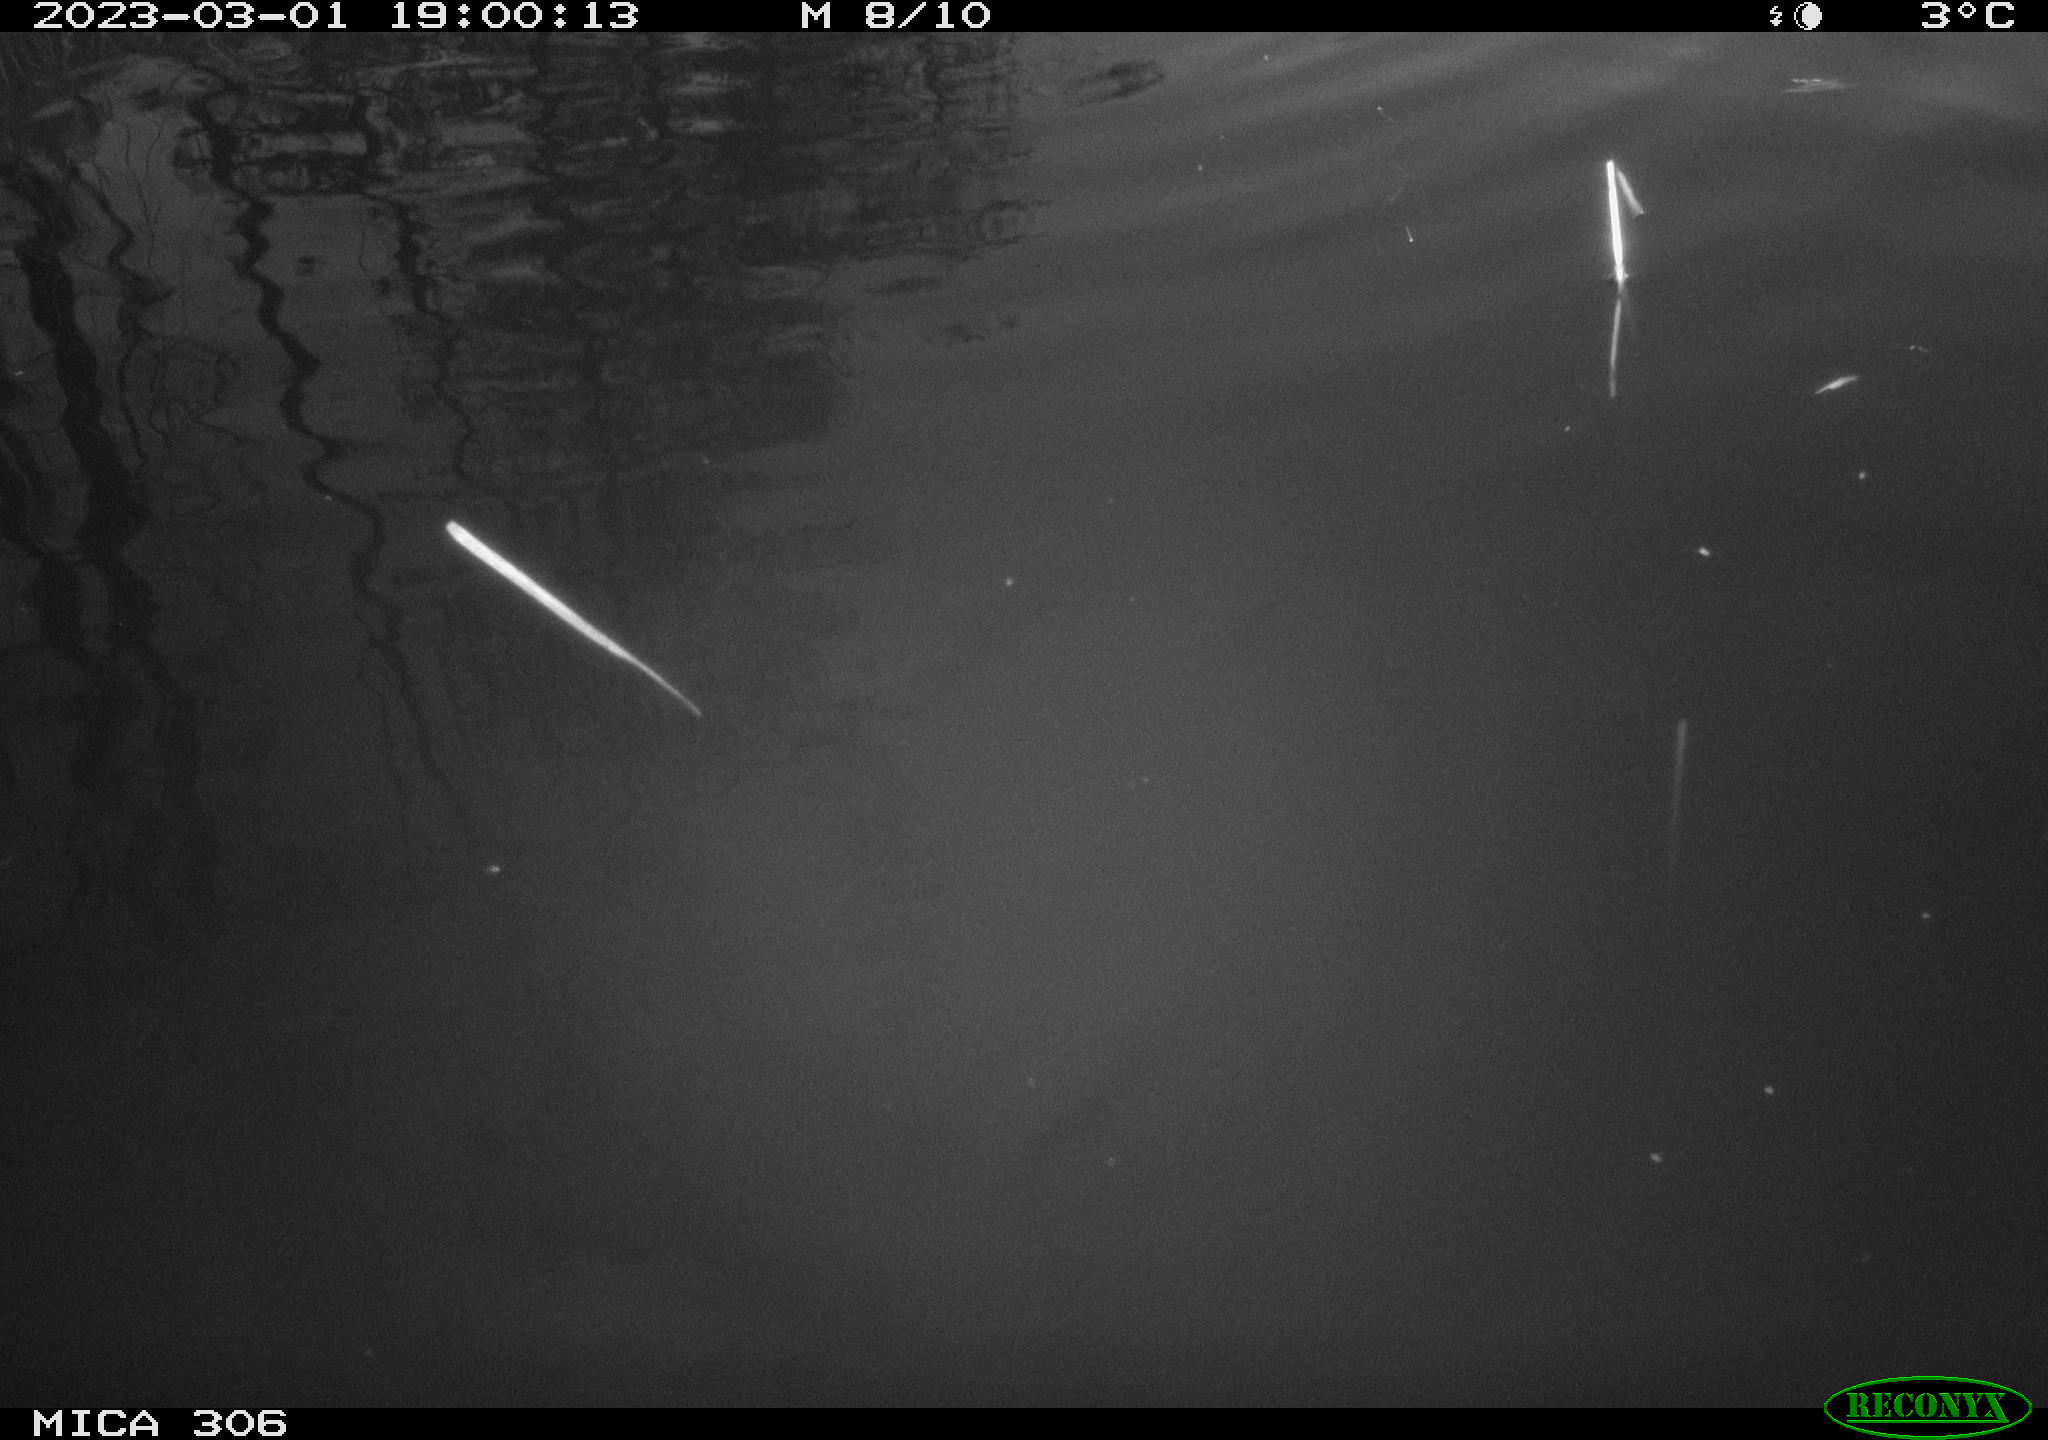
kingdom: Animalia
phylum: Chordata
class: Mammalia
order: Rodentia
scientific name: Rodentia
